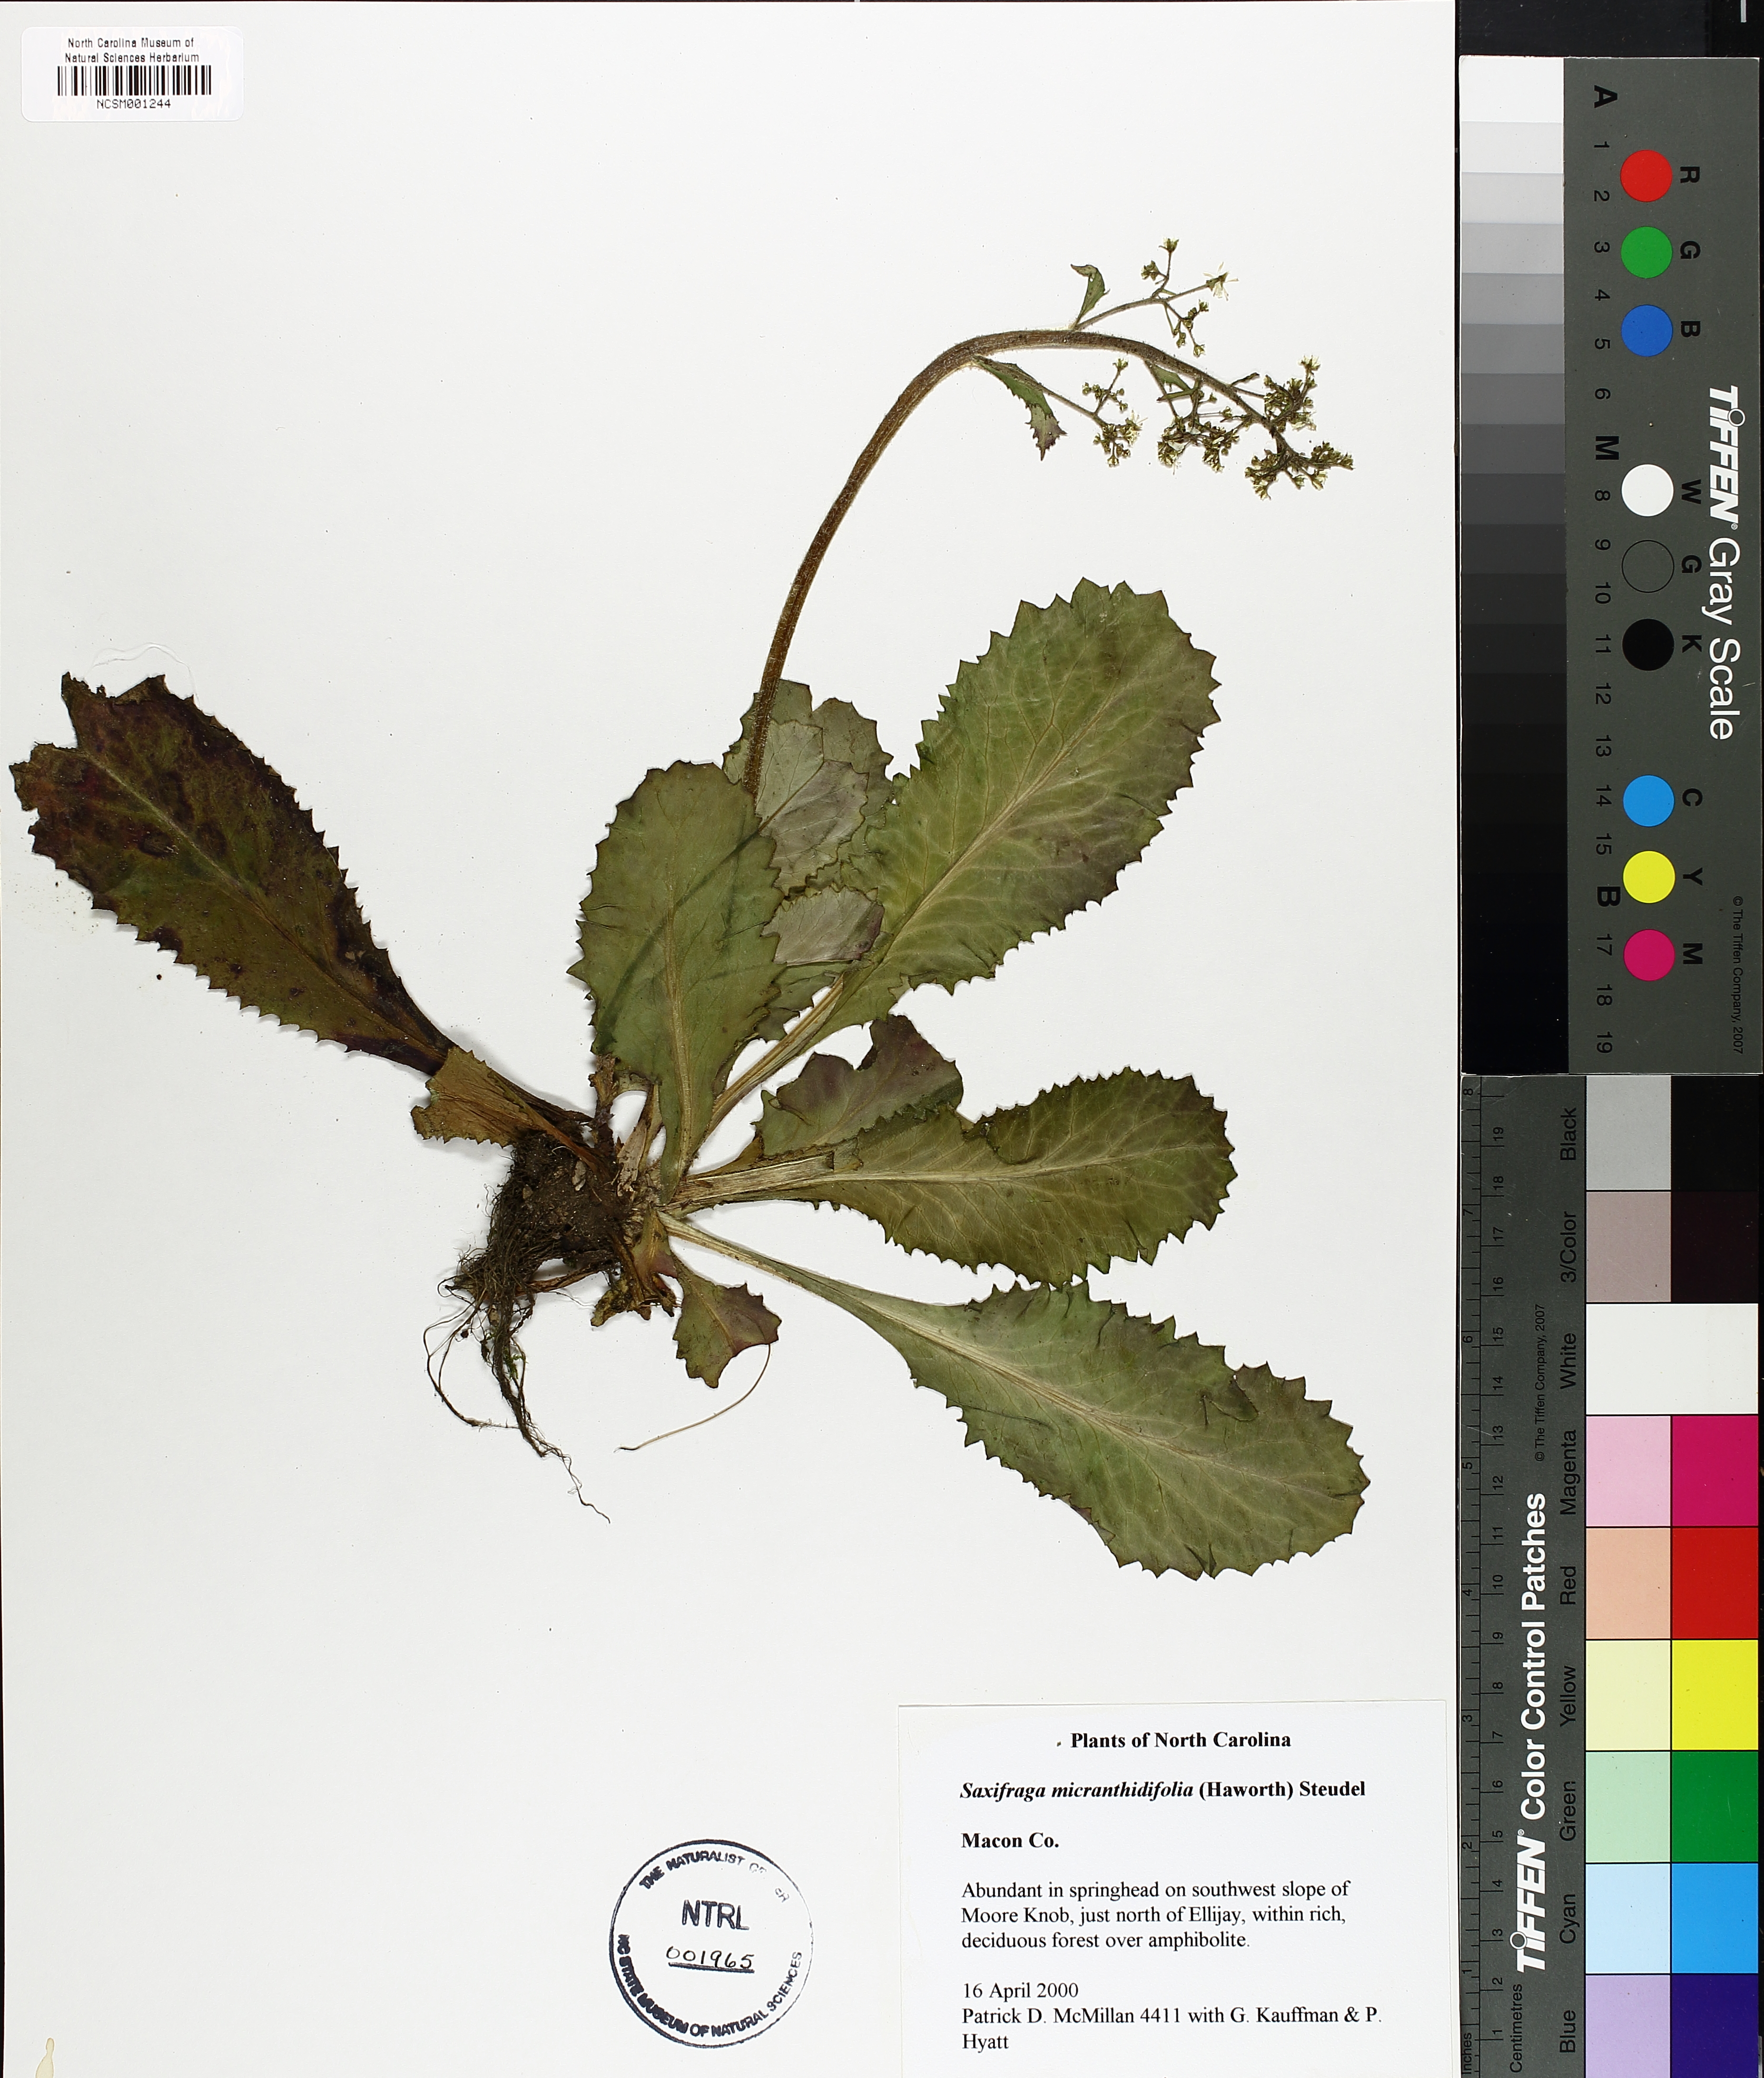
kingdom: Plantae
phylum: Tracheophyta
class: Magnoliopsida
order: Saxifragales
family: Saxifragaceae
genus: Micranthes
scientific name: Micranthes micranthidifolia
